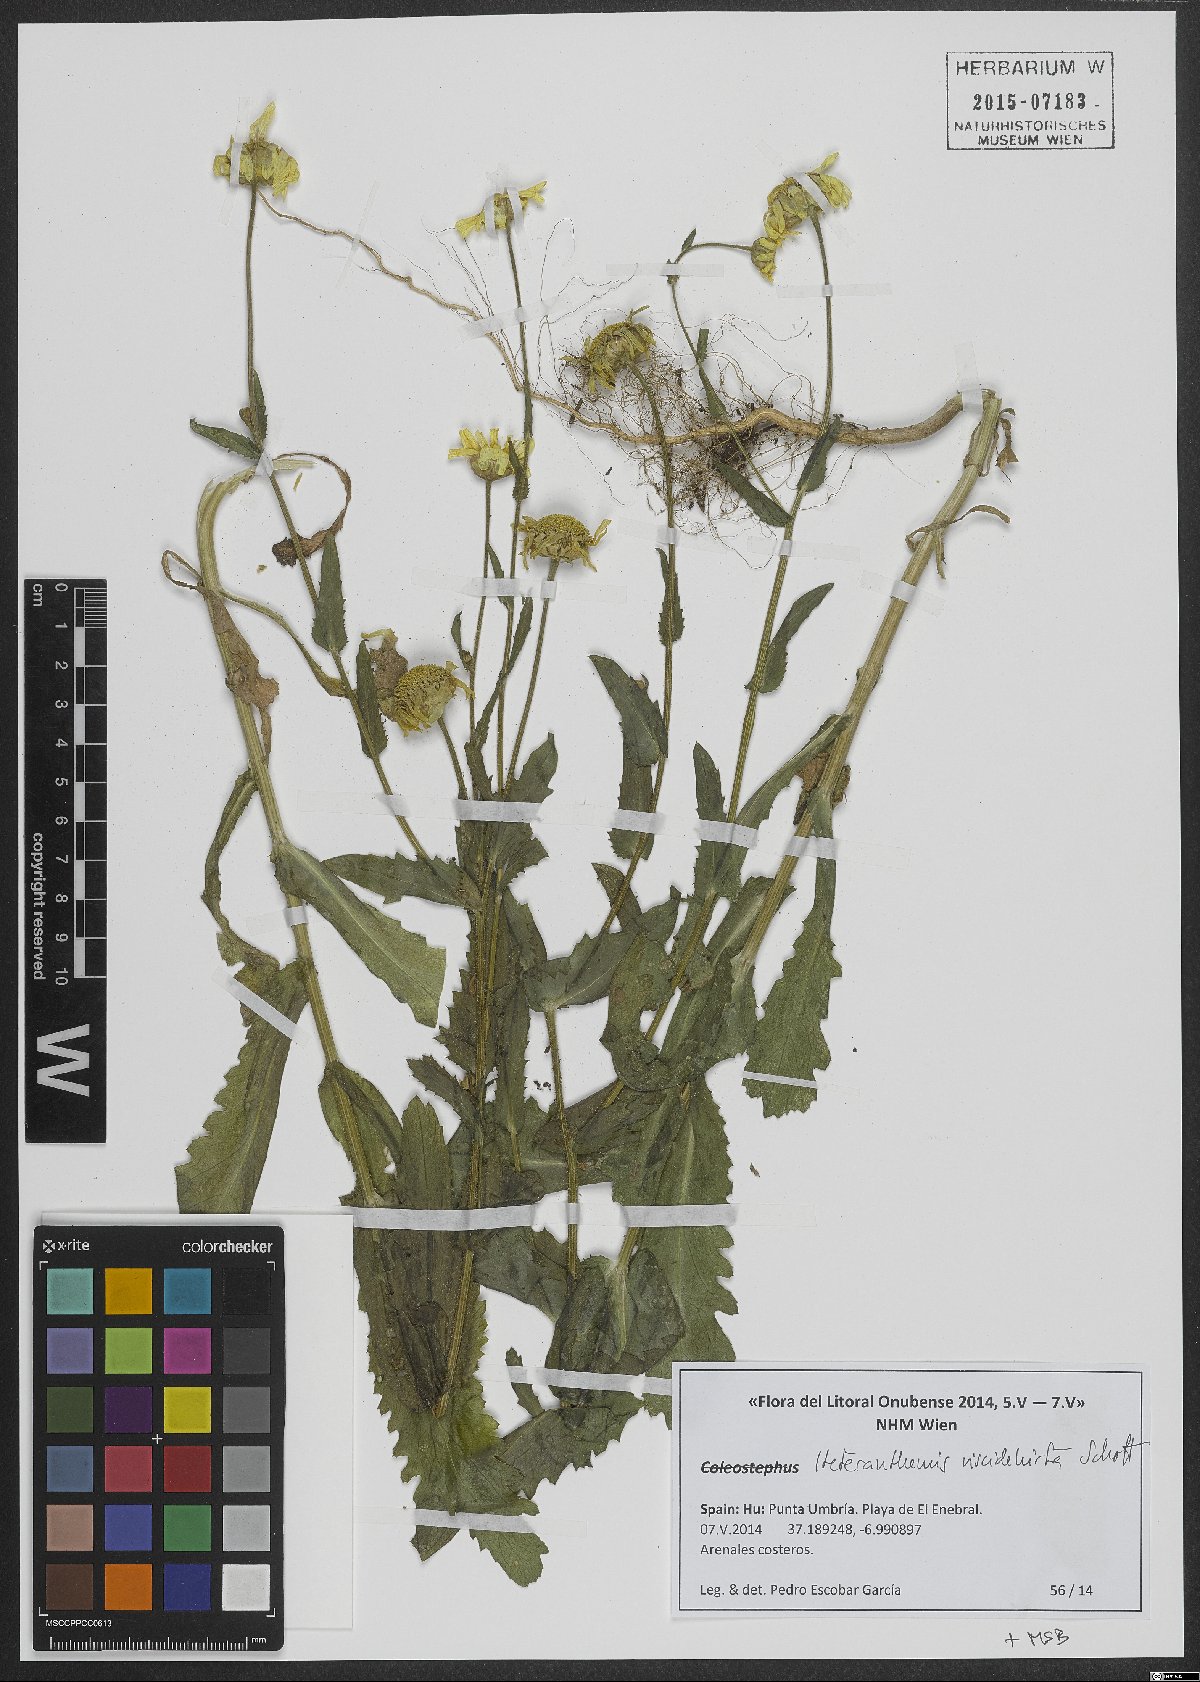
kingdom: Plantae
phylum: Tracheophyta
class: Magnoliopsida
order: Asterales
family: Asteraceae
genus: Heteranthemis
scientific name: Heteranthemis viscidehirta
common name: Sticky oxeye
